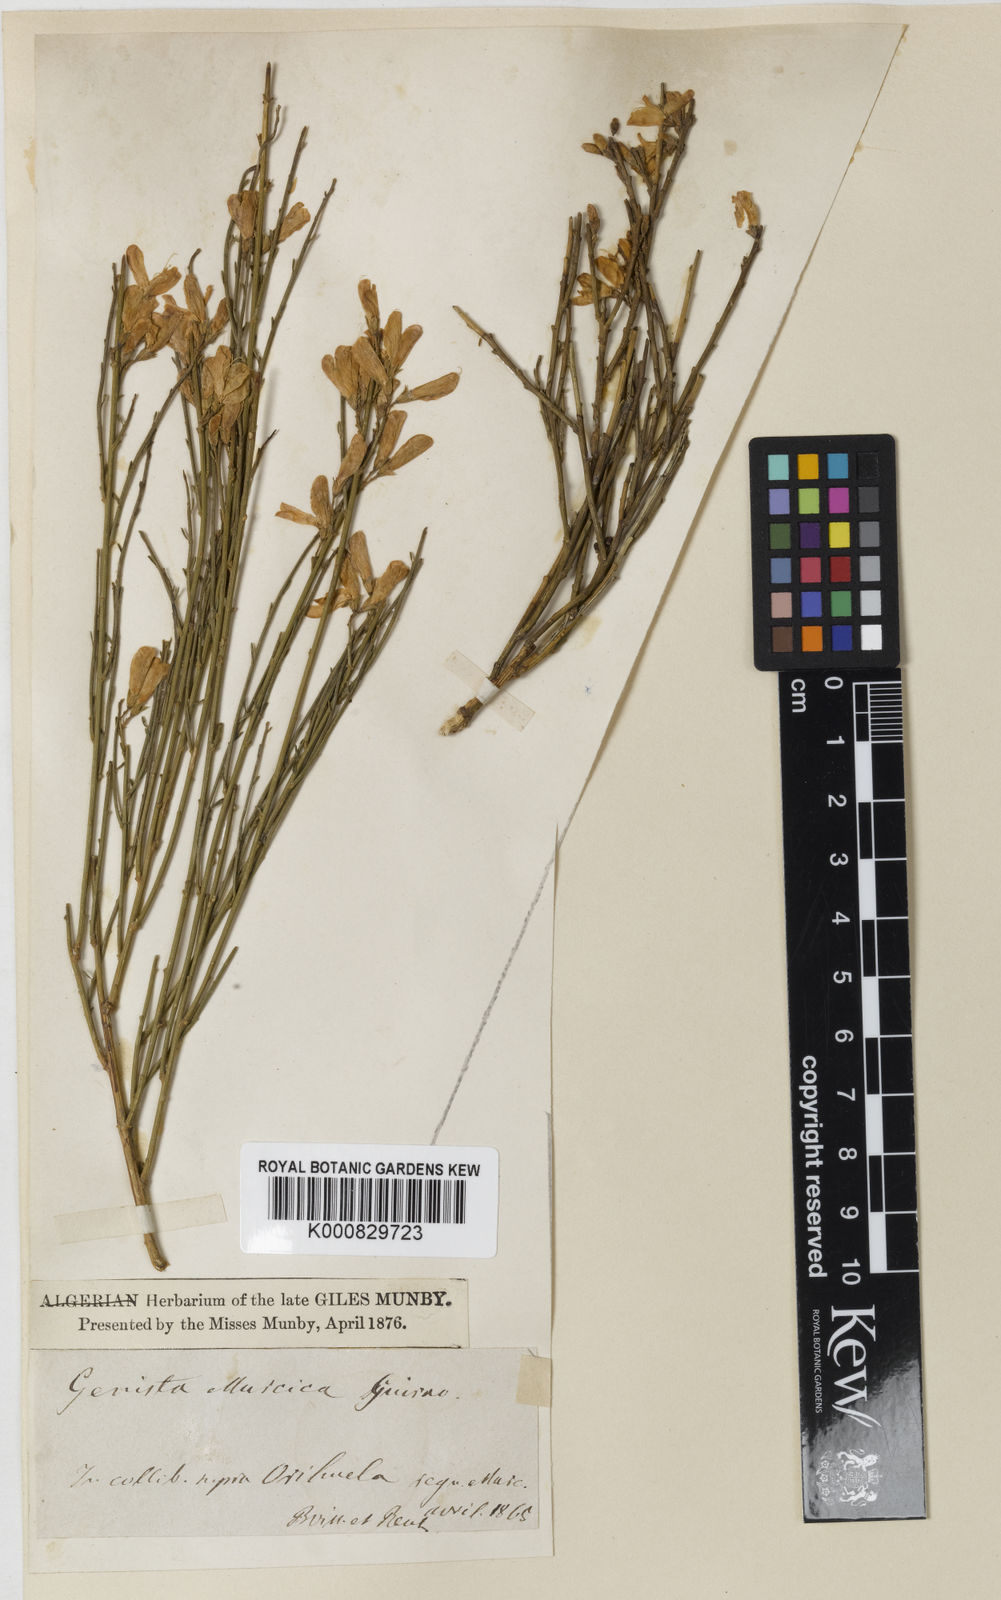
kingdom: Plantae
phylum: Tracheophyta
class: Magnoliopsida
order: Fabales
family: Fabaceae
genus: Genista
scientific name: Genista cinerea
